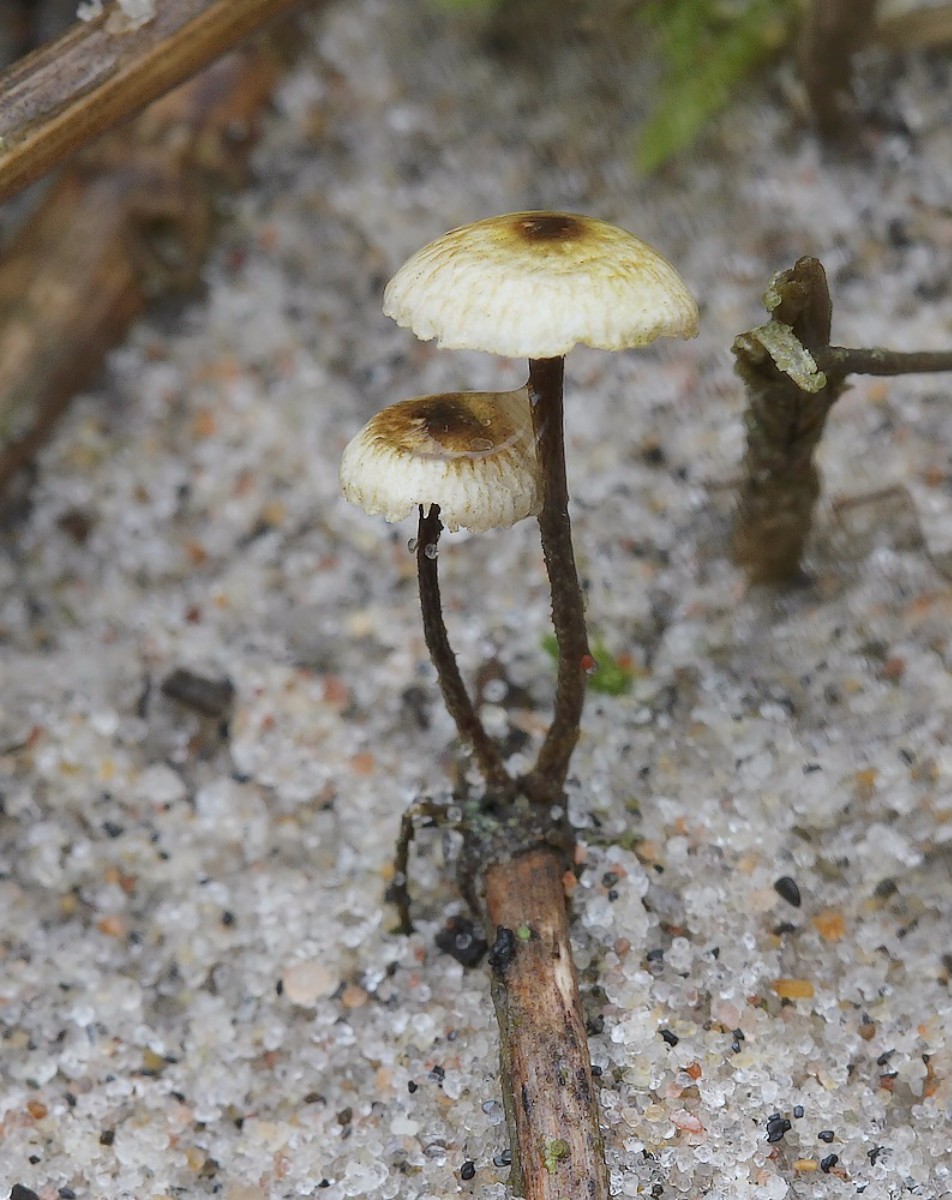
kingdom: Fungi
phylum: Basidiomycota
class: Agaricomycetes
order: Agaricales
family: Marasmiaceae
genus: Crinipellis
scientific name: Crinipellis scabella
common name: børstefod
